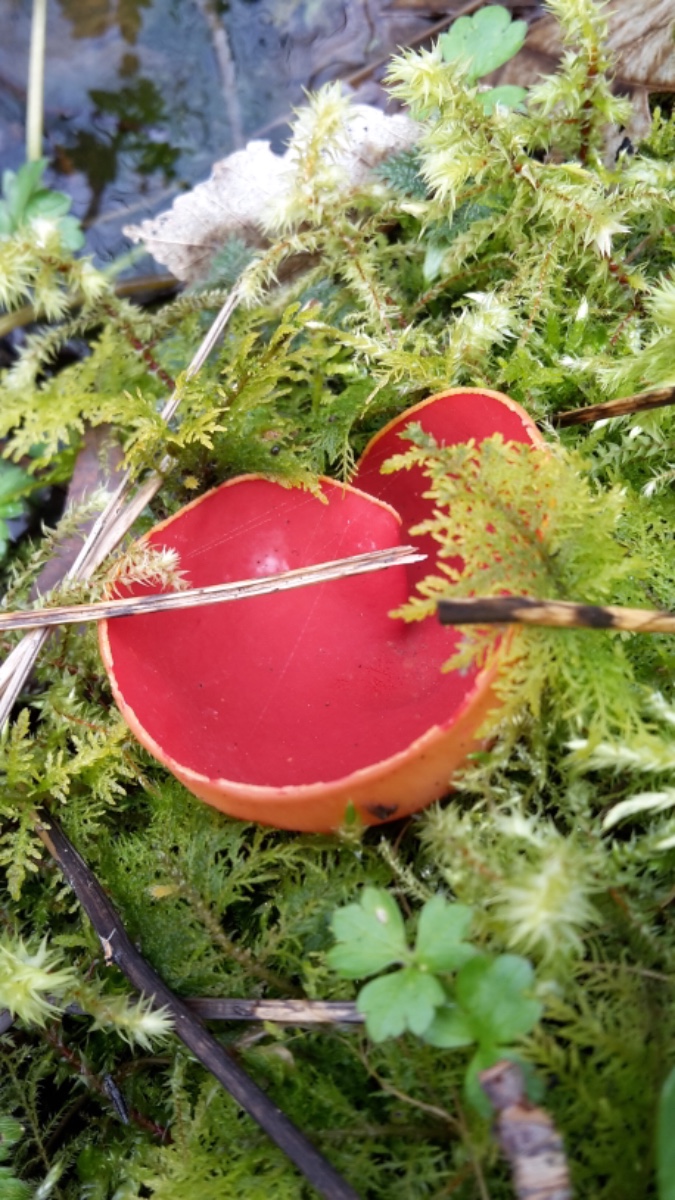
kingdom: Fungi
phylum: Ascomycota
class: Pezizomycetes
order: Pezizales
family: Sarcoscyphaceae
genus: Sarcoscypha
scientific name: Sarcoscypha austriaca
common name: krølhåret pragtbæger
